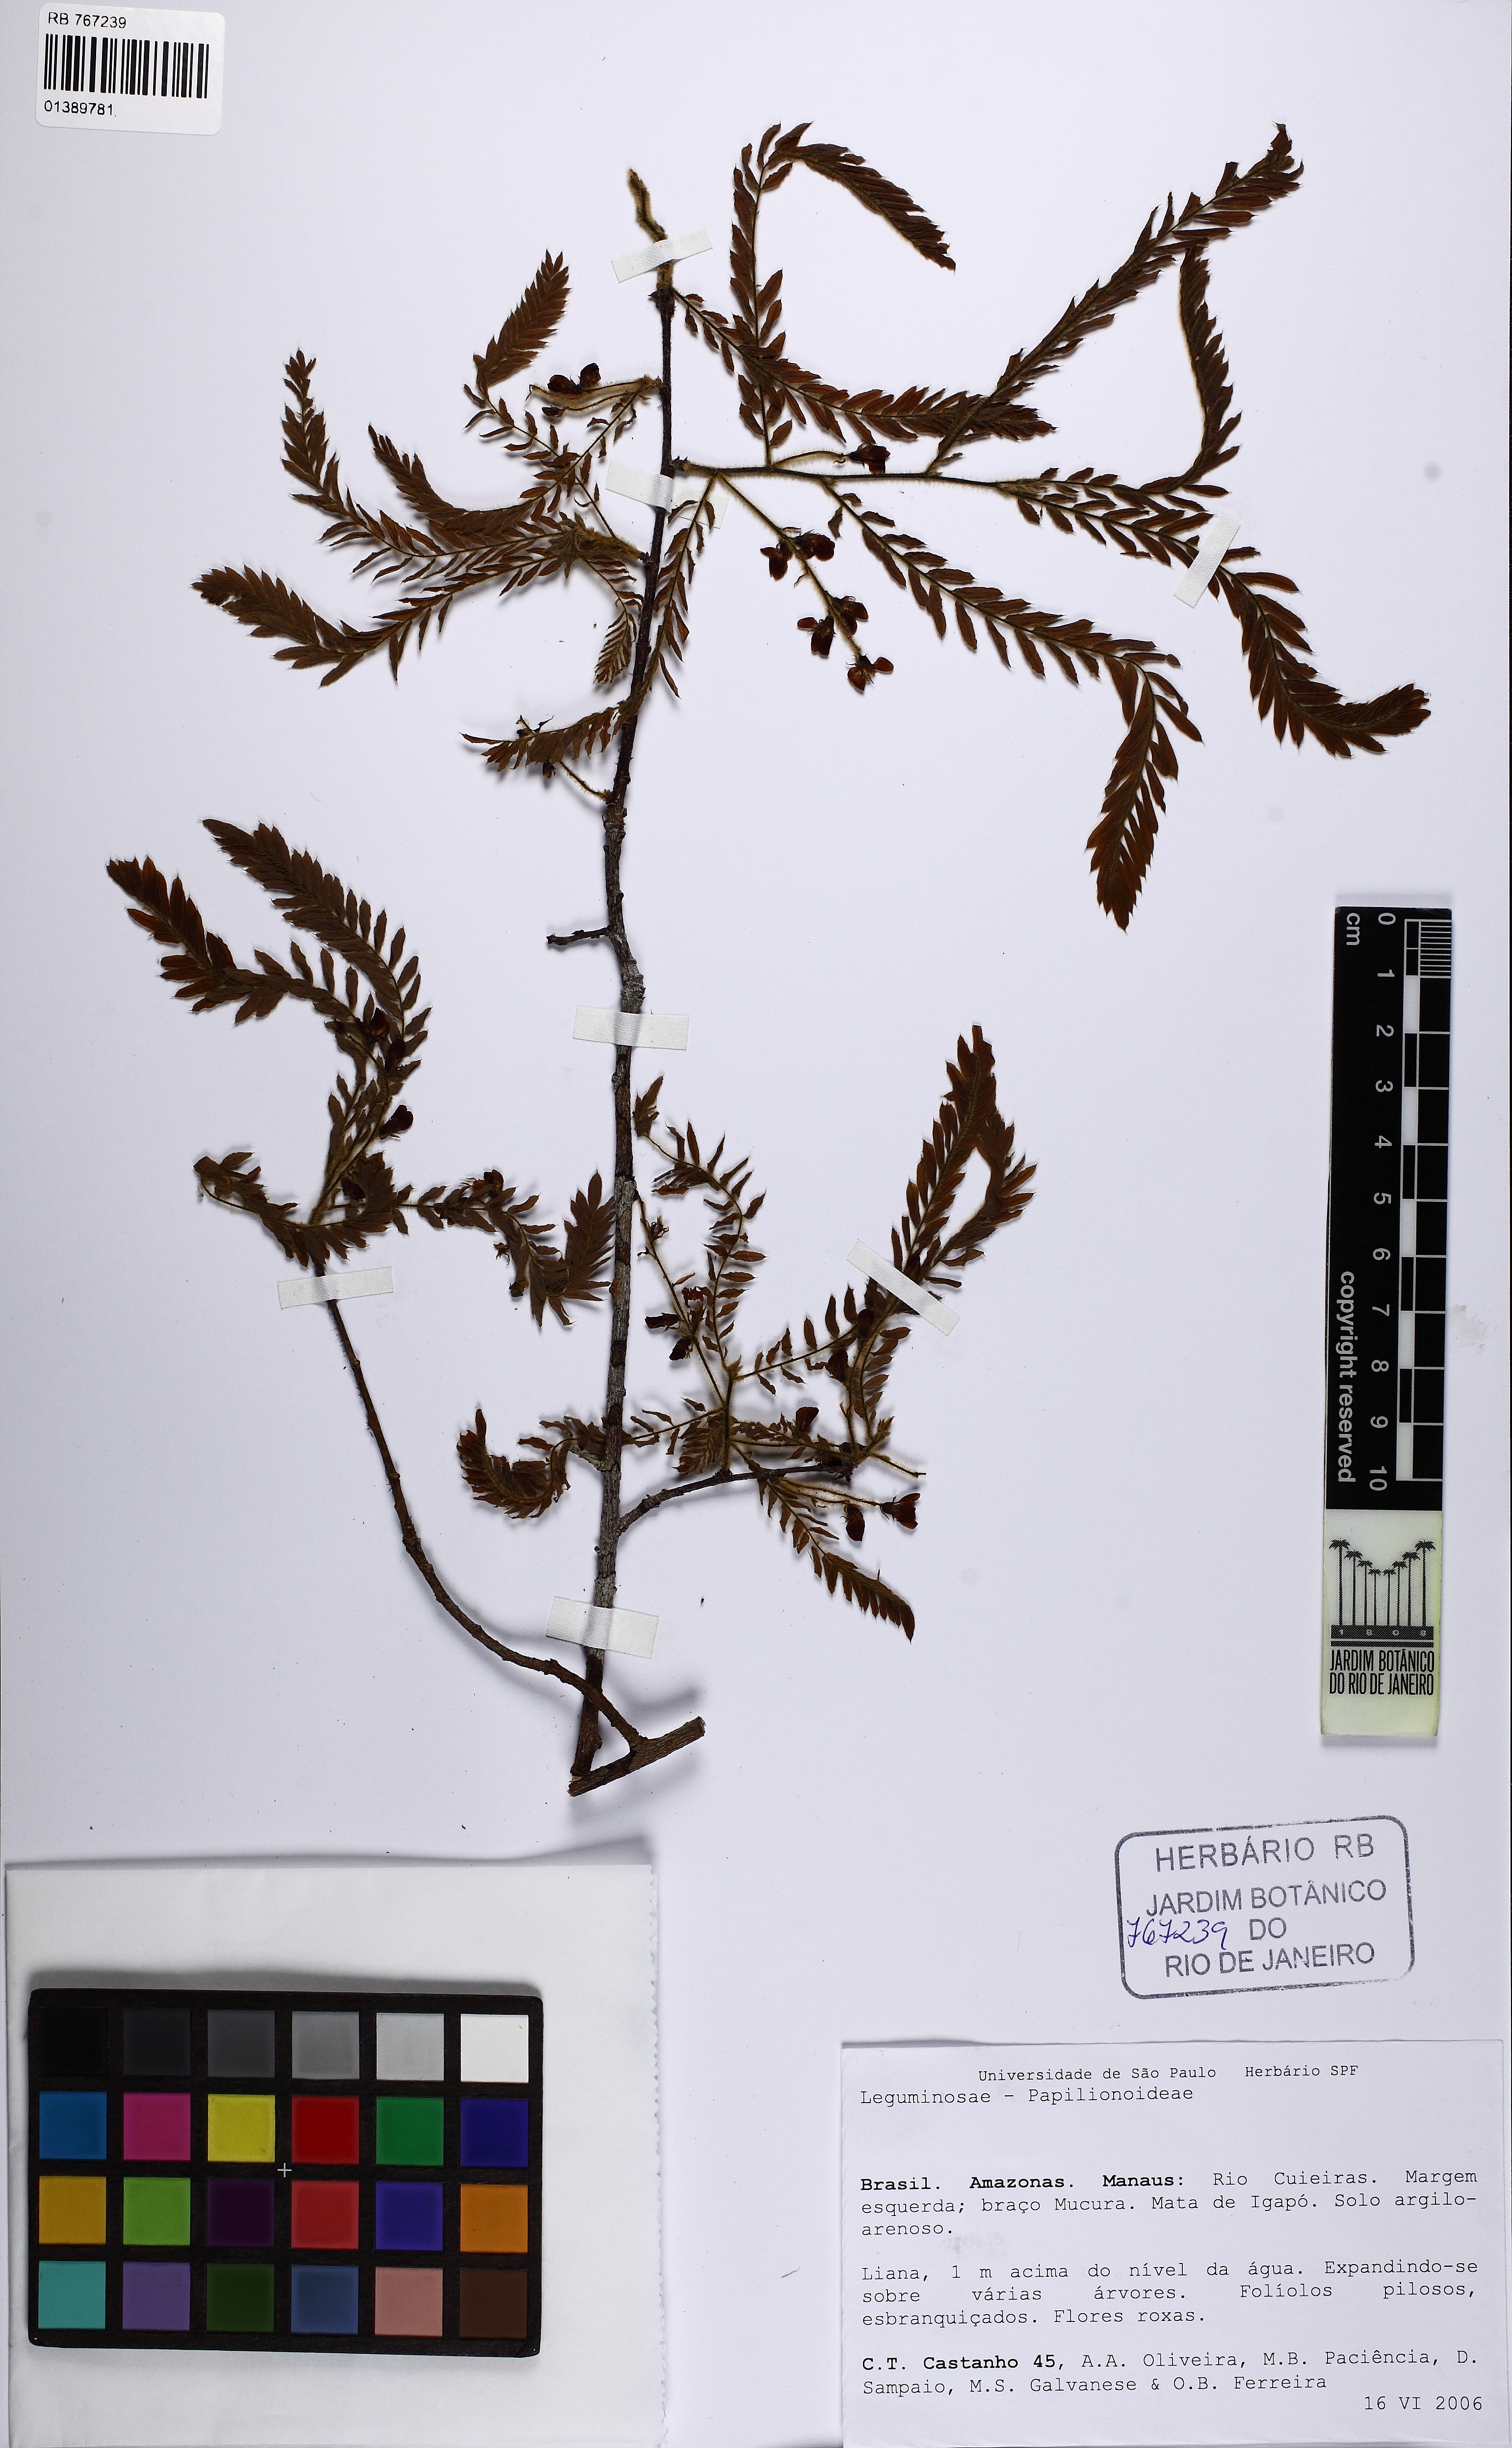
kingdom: Plantae
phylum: Tracheophyta
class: Magnoliopsida
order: Fabales
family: Fabaceae
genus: Dalbergia
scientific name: Dalbergia
